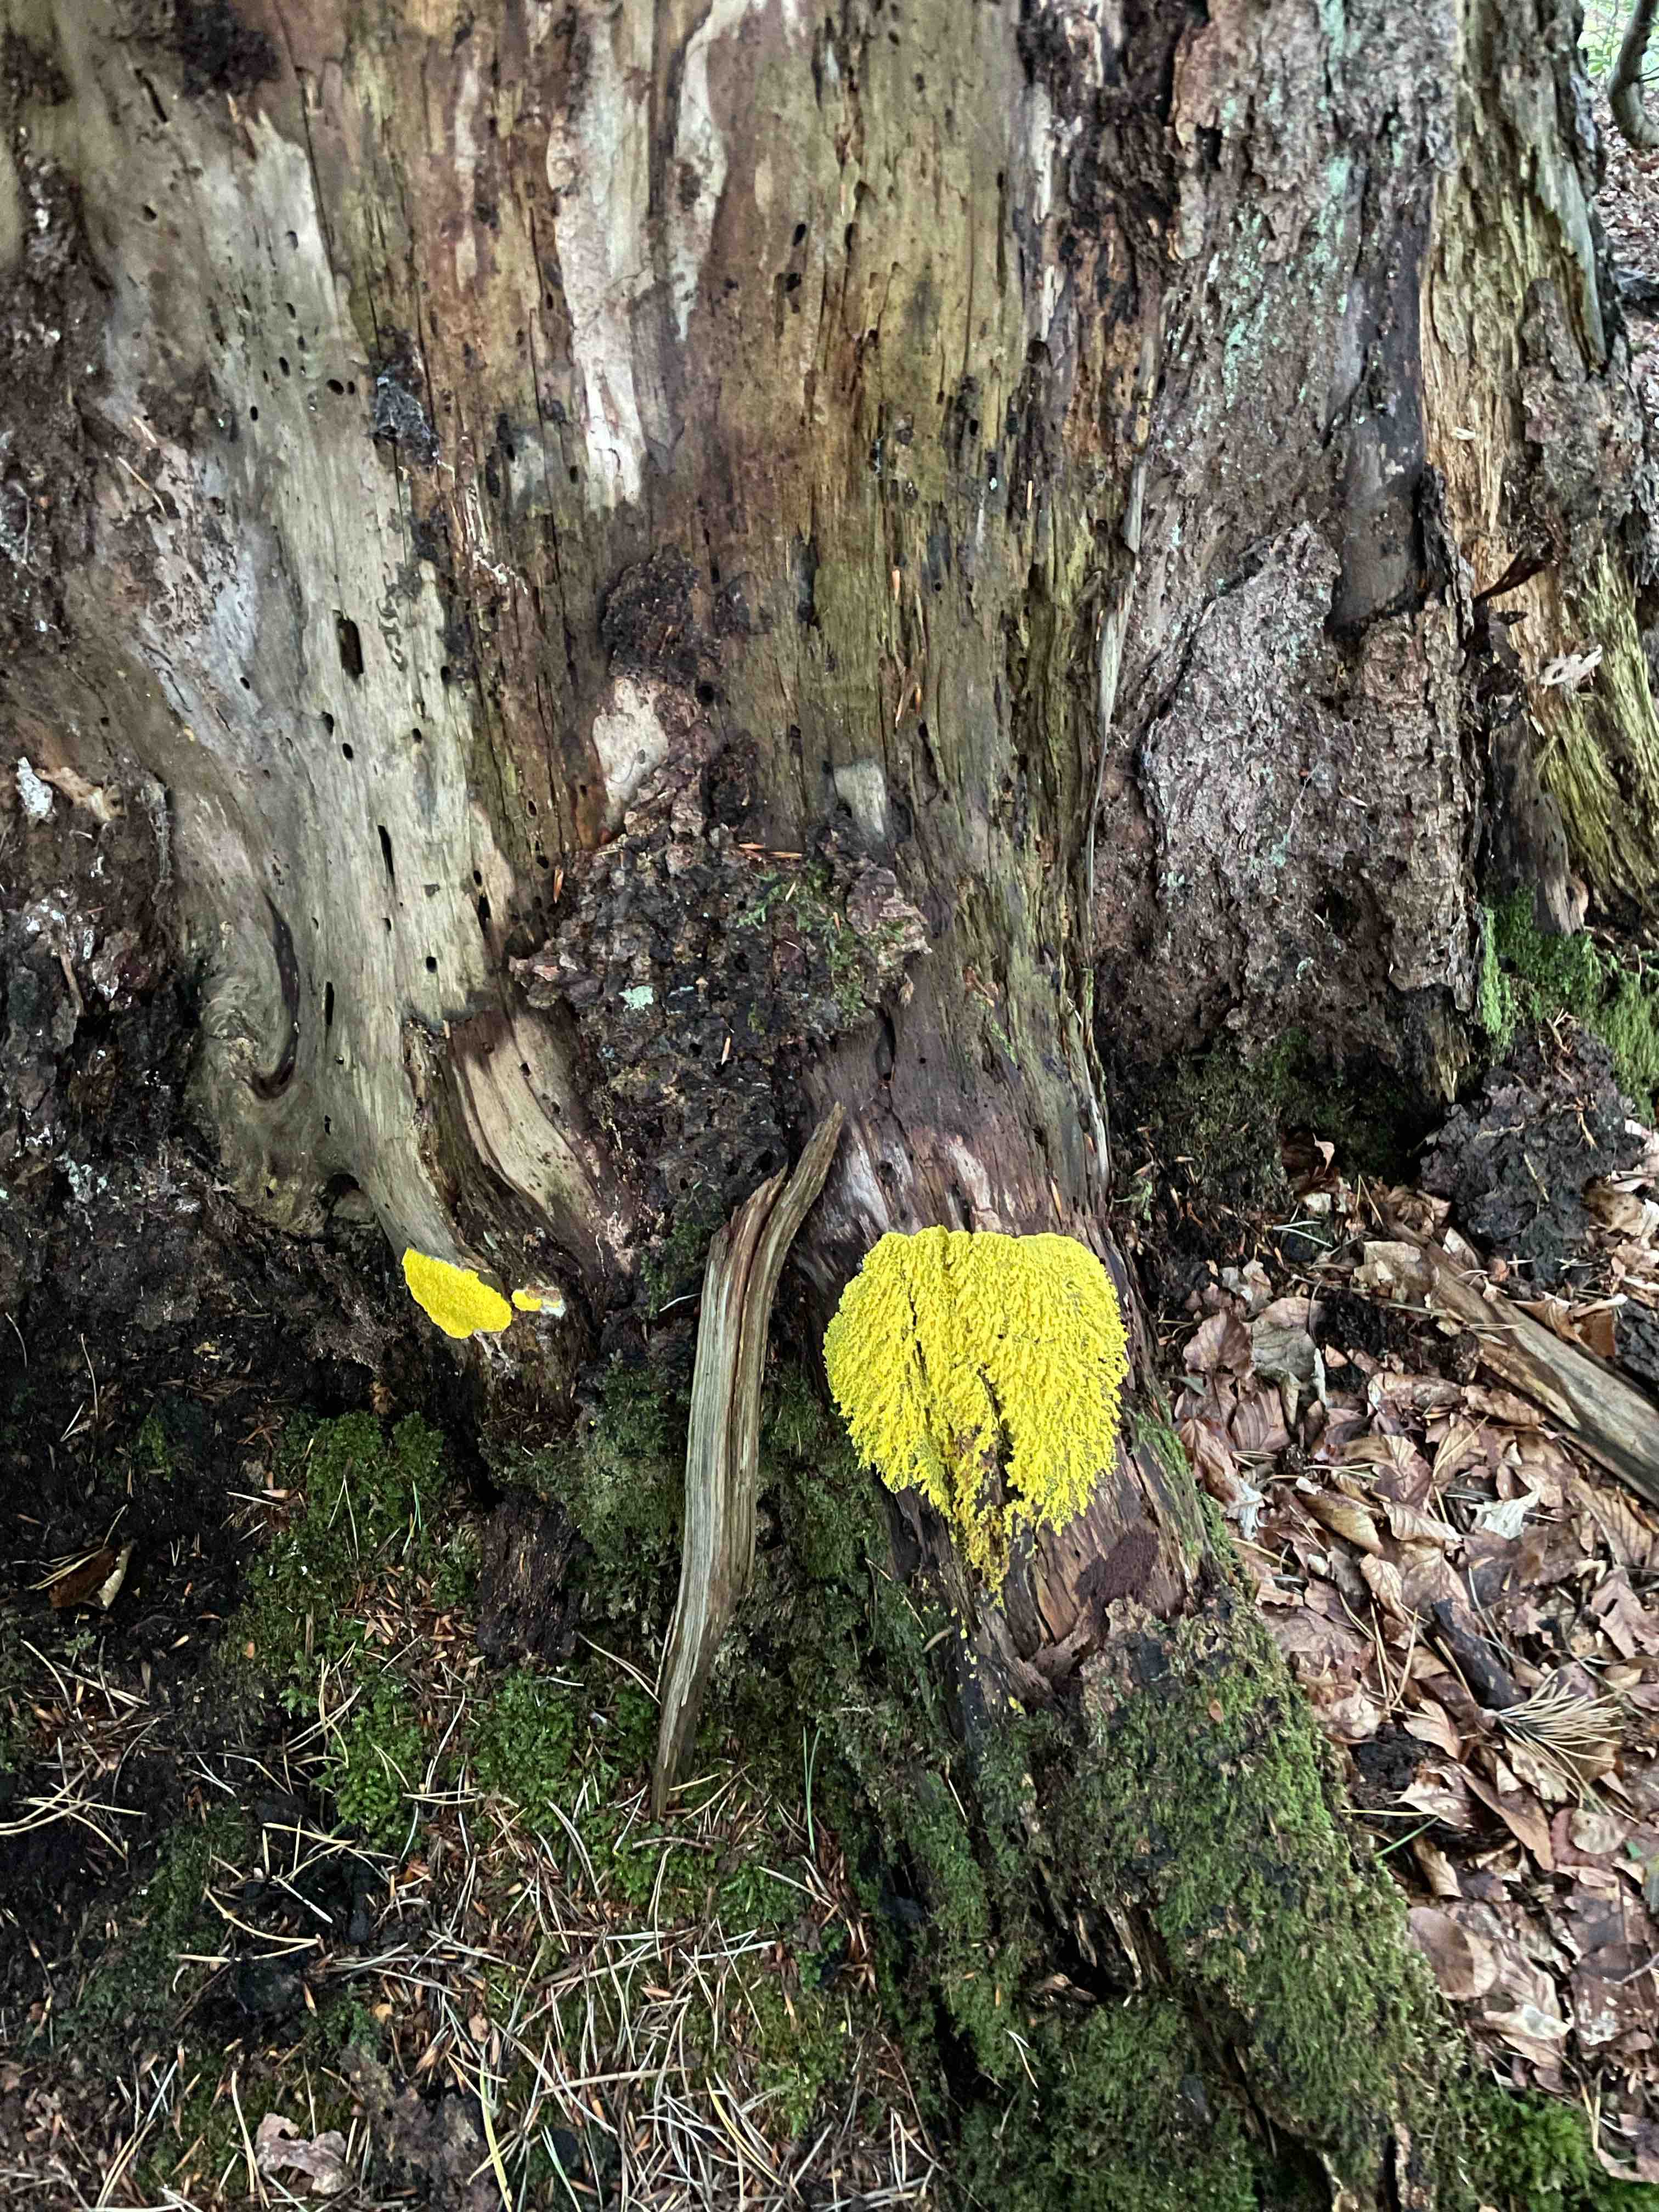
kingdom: Protozoa
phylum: Mycetozoa
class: Myxomycetes
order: Physarales
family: Physaraceae
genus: Fuligo
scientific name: Fuligo septica
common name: gul troldsmør
